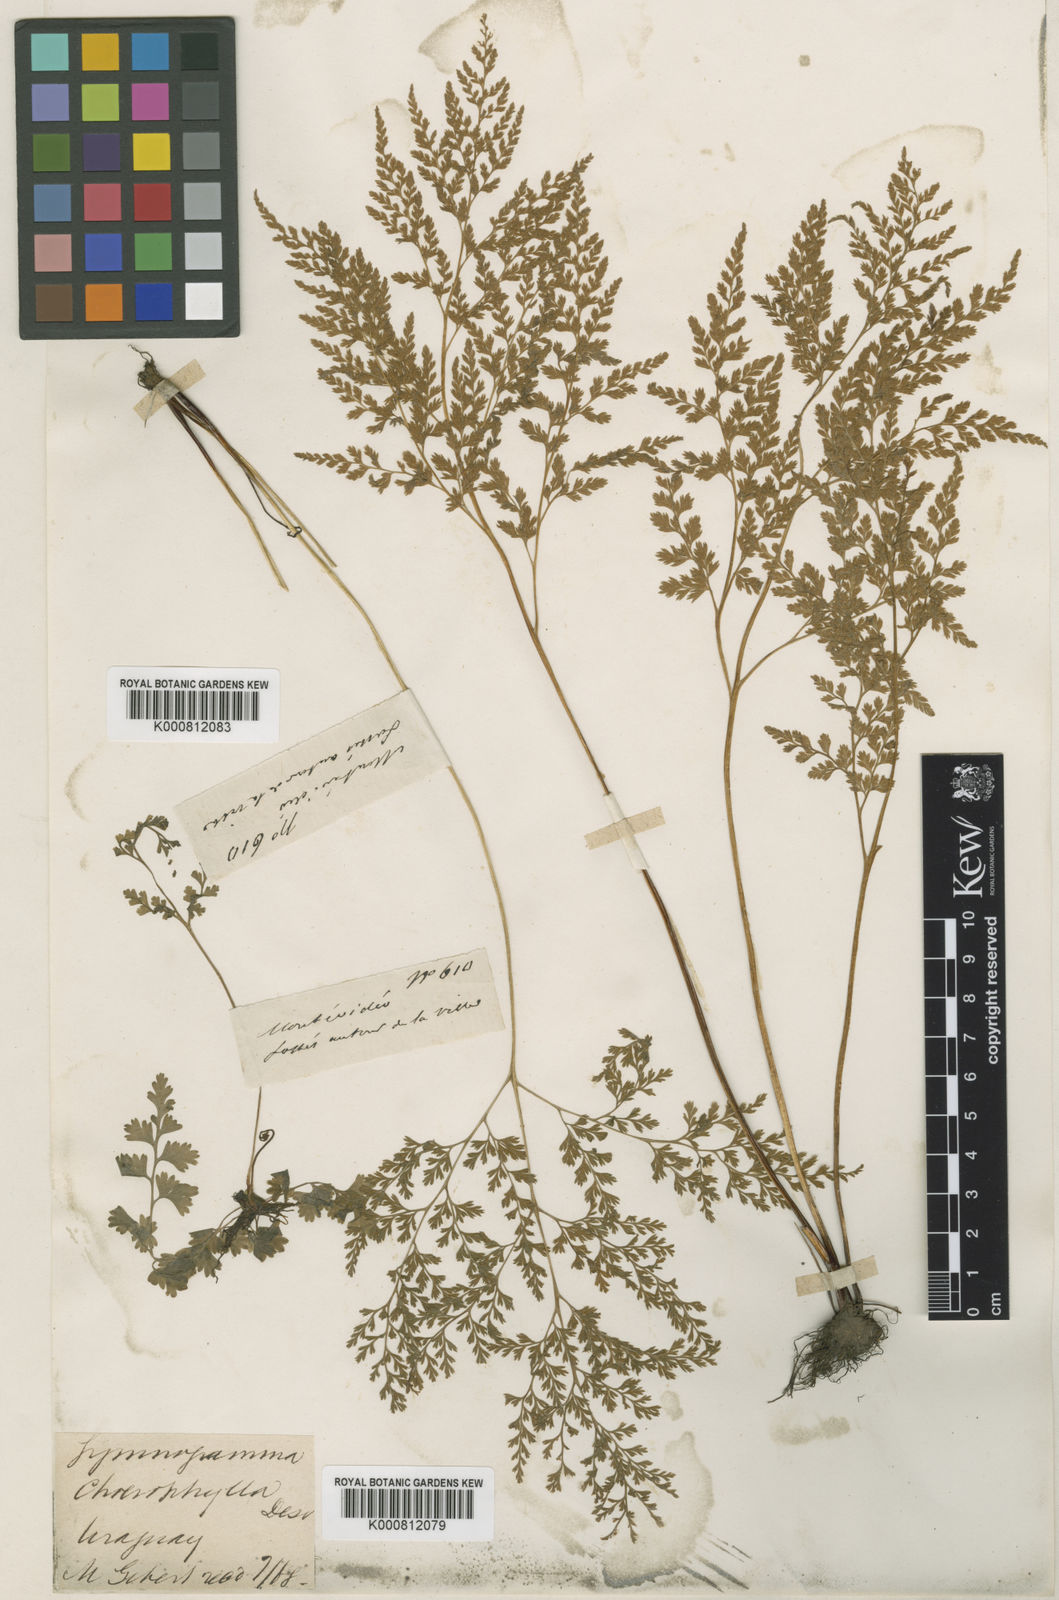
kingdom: Plantae
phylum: Tracheophyta
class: Polypodiopsida
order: Polypodiales
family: Pteridaceae
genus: Gastoniella
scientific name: Gastoniella chaerophylla
